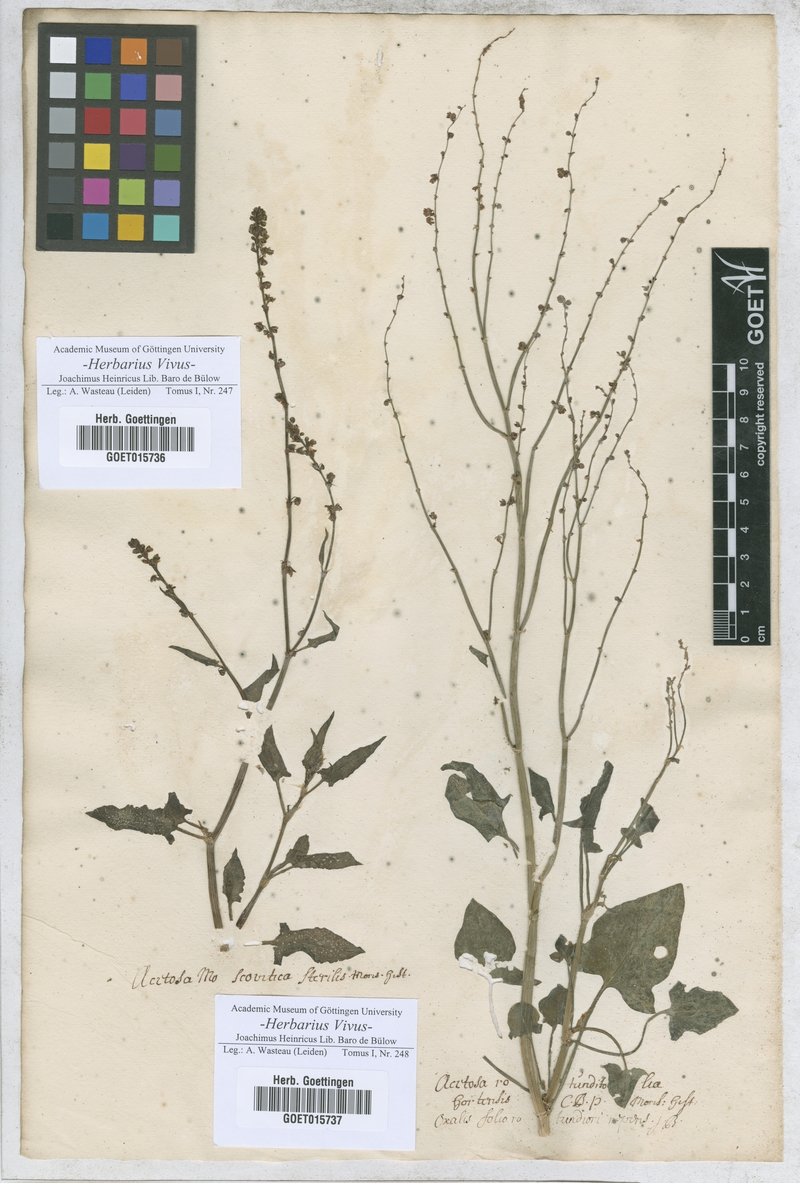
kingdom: Plantae
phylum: Tracheophyta
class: Magnoliopsida
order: Caryophyllales
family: Polygonaceae
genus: Rumex
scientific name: Rumex
